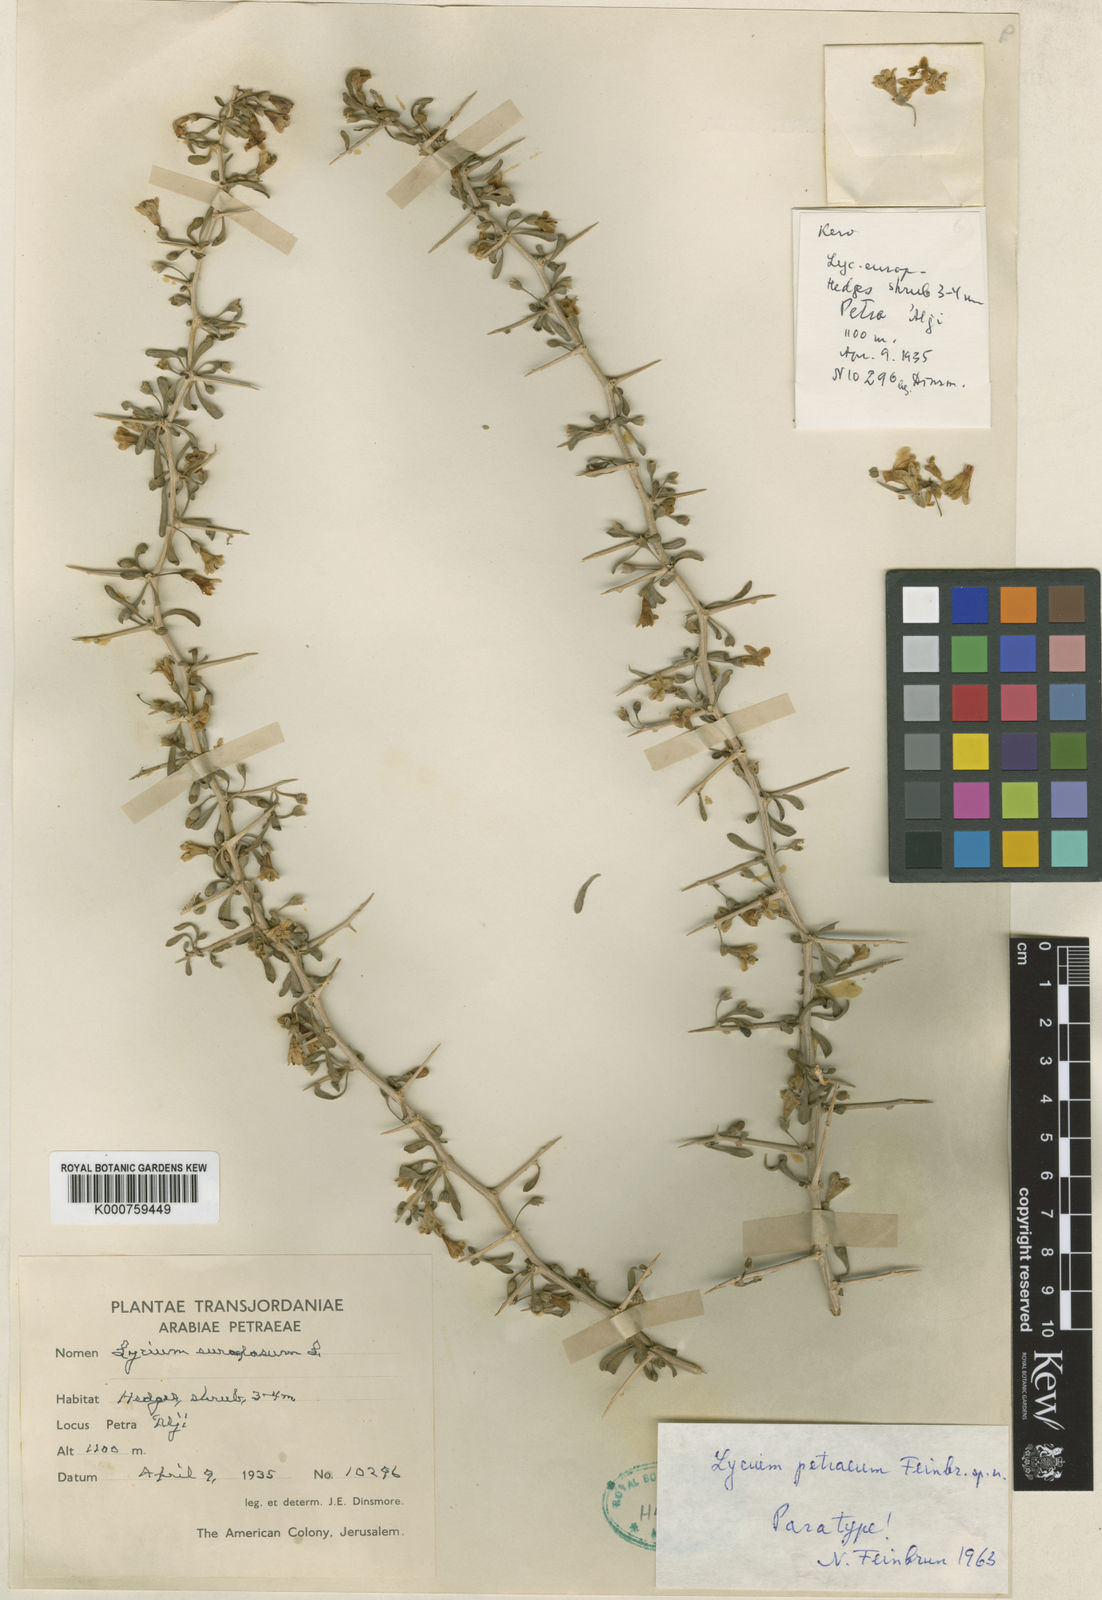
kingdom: Plantae
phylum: Tracheophyta
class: Magnoliopsida
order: Solanales
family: Solanaceae
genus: Lycium
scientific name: Lycium petraeum
